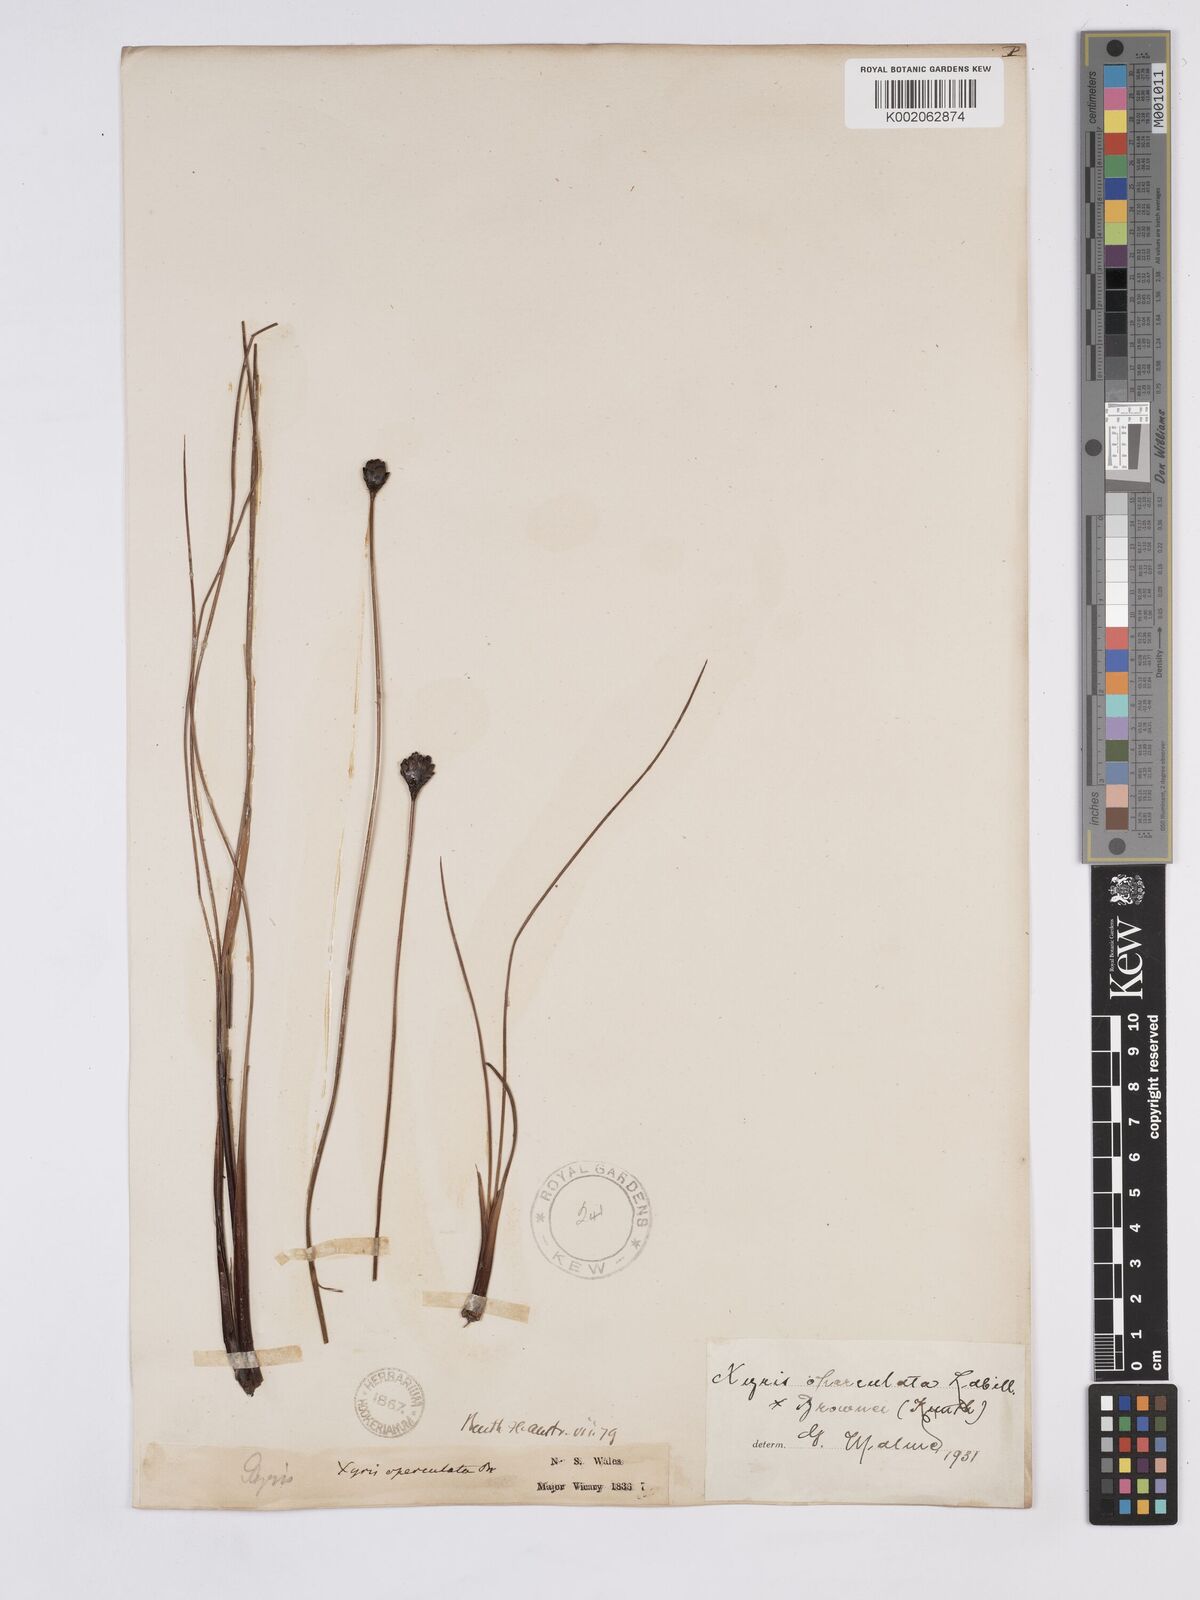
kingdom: Plantae
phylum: Tracheophyta
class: Liliopsida
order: Poales
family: Xyridaceae
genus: Xyris
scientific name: Xyris operculata
